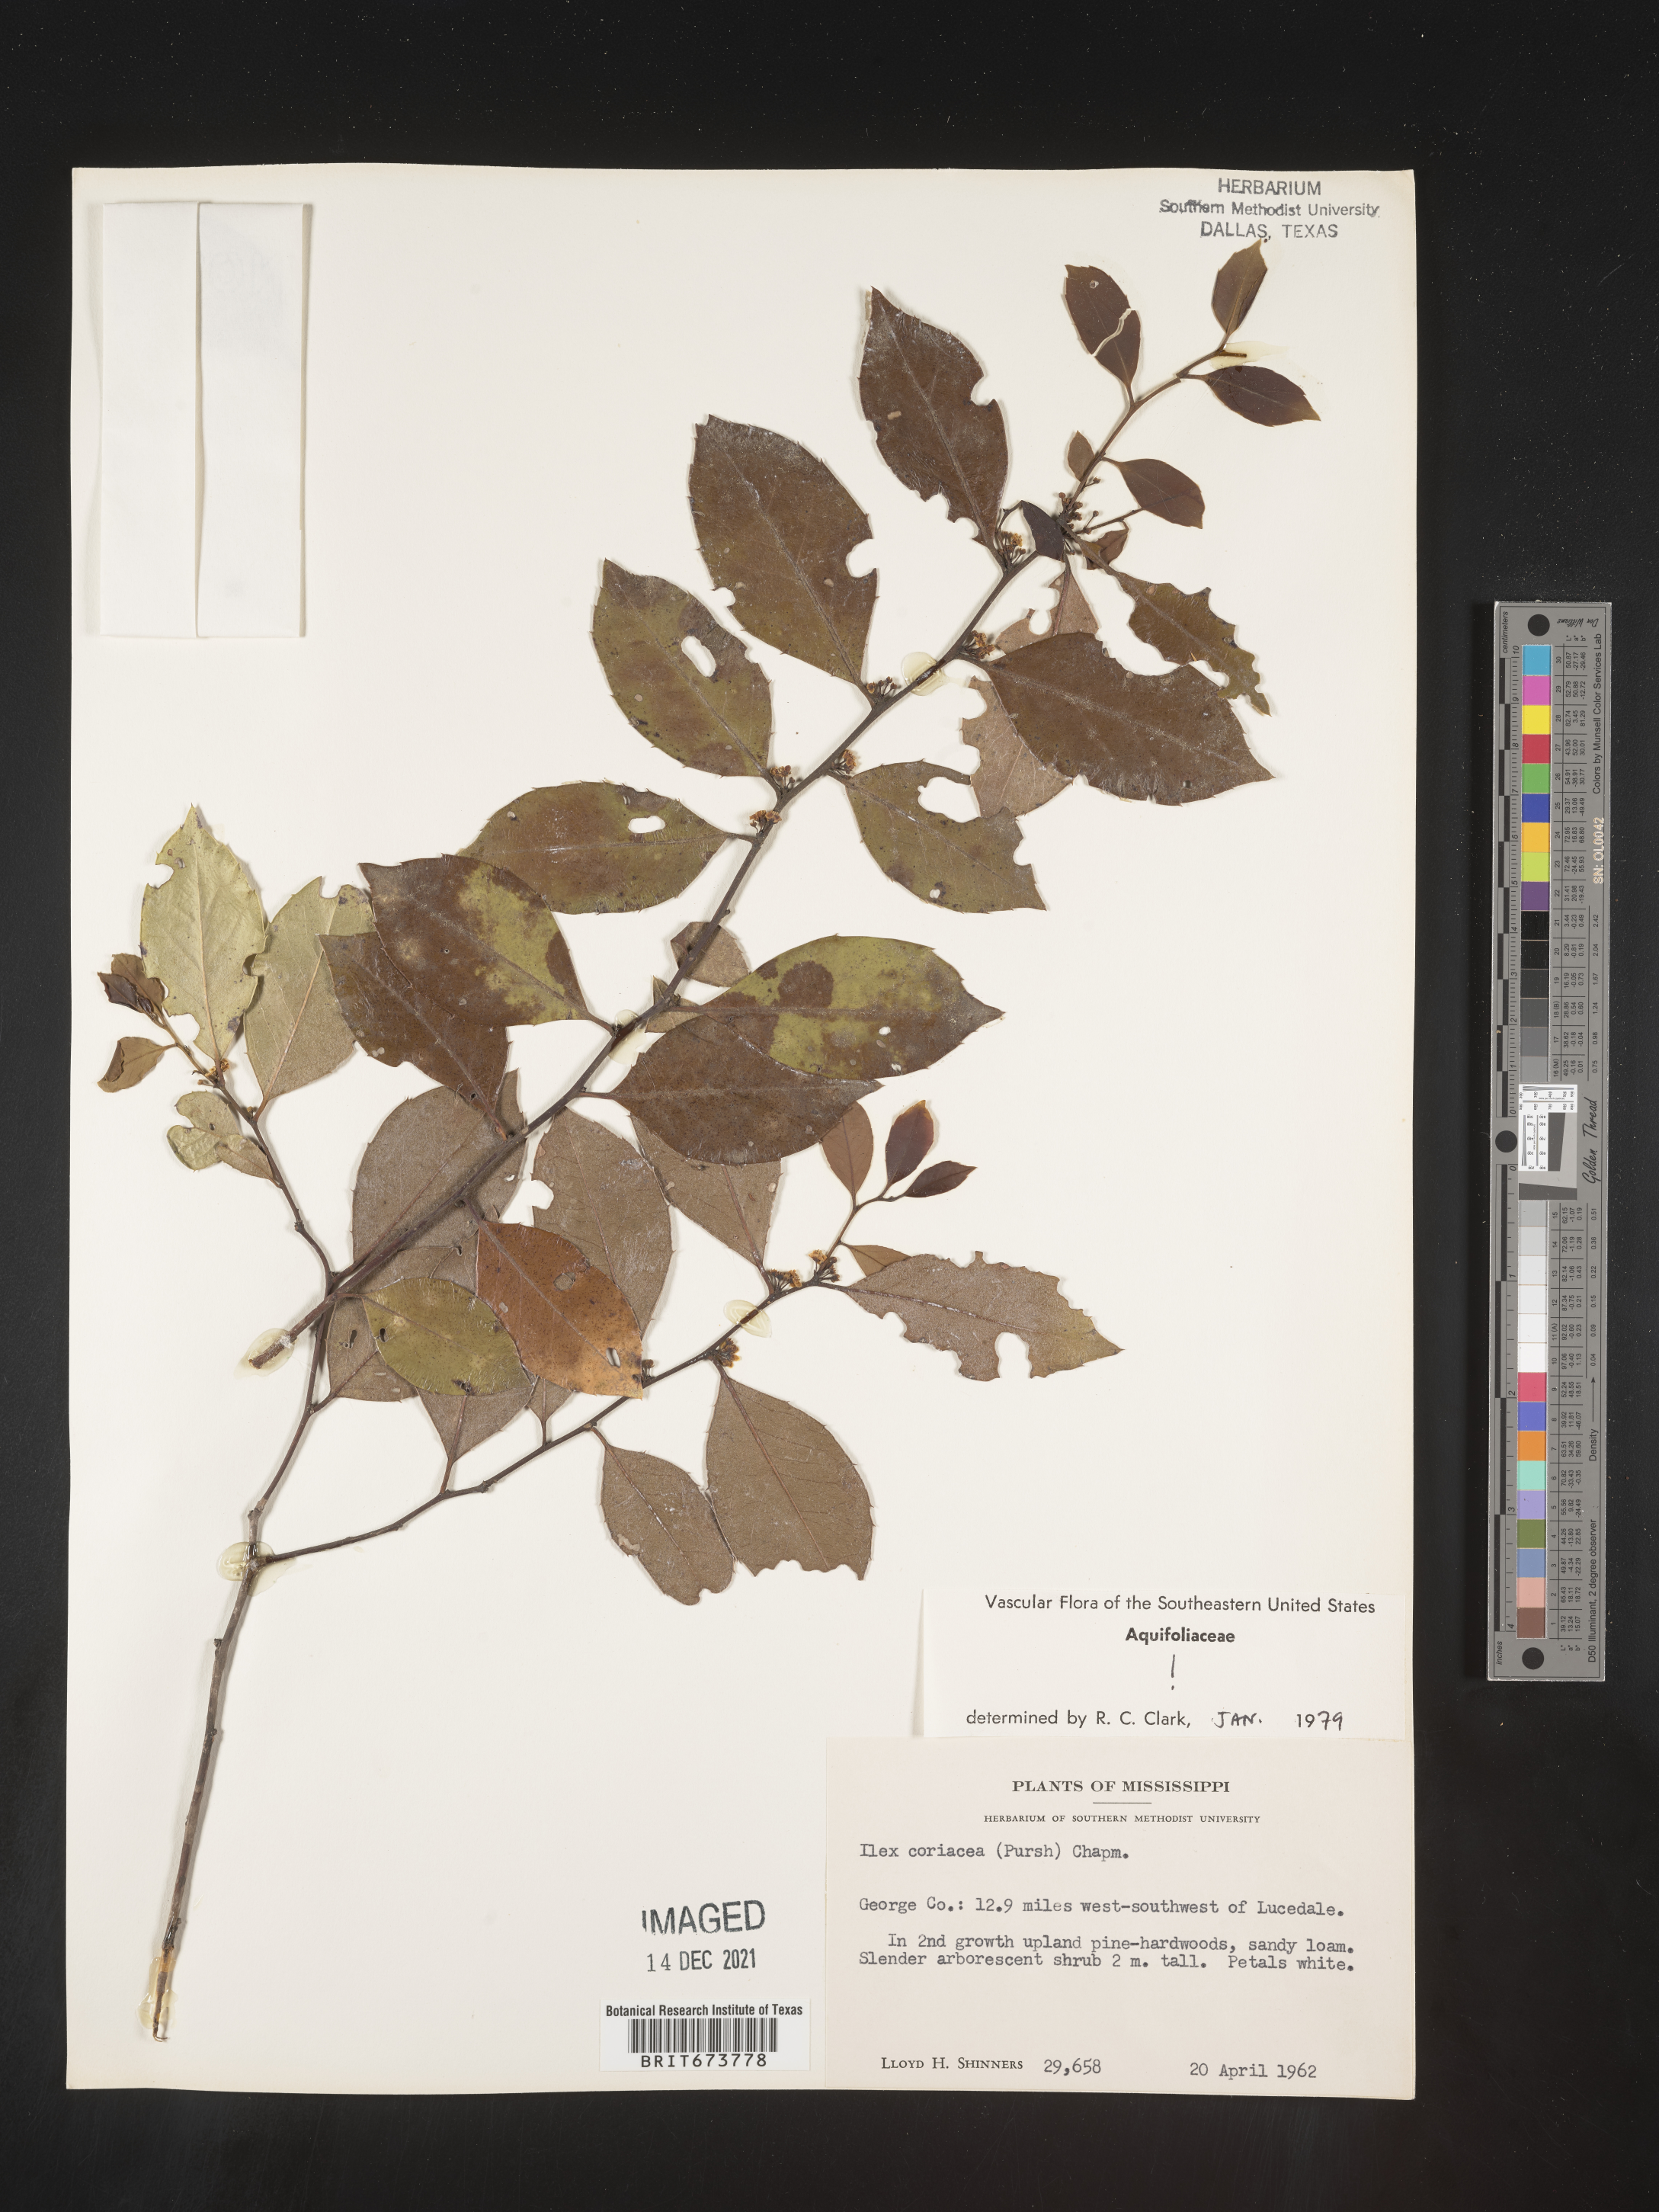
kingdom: Plantae
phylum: Tracheophyta
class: Magnoliopsida
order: Aquifoliales
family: Aquifoliaceae
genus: Ilex
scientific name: Ilex coriacea
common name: Sweet gallberry
